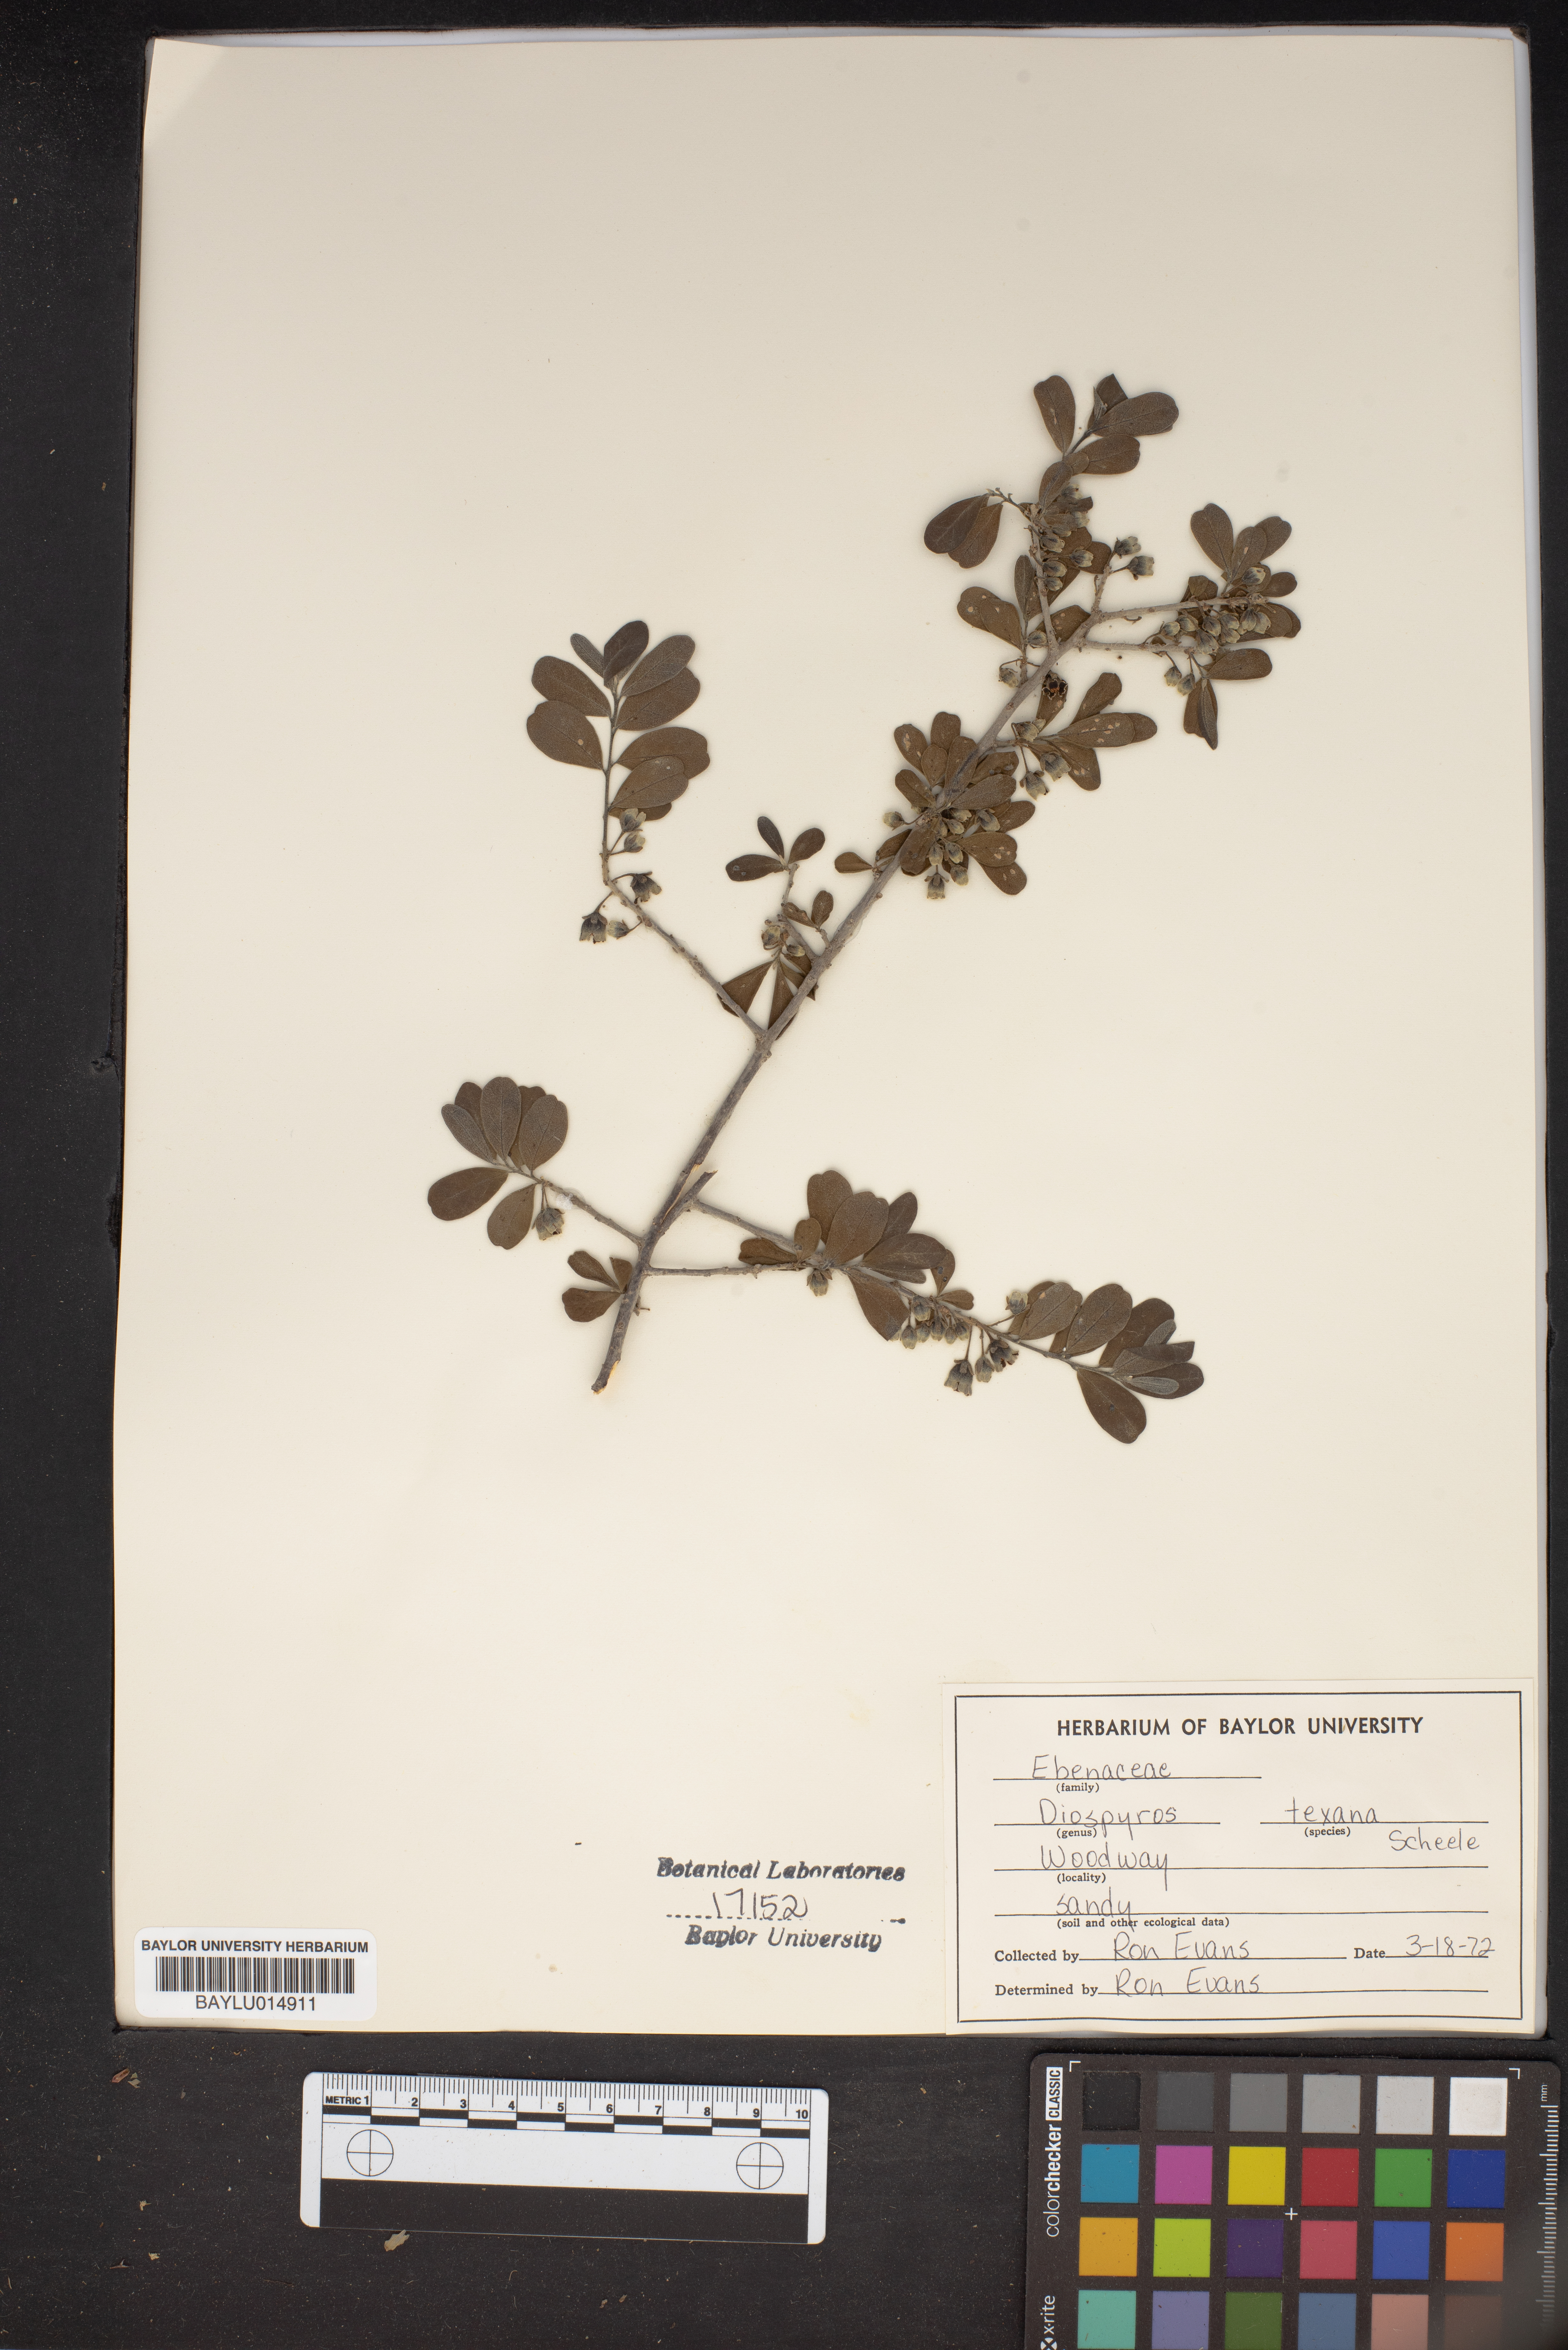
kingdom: Plantae
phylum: Tracheophyta
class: Magnoliopsida
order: Ericales
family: Ebenaceae
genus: Diospyros
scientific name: Diospyros texana
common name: Texas persimmon
